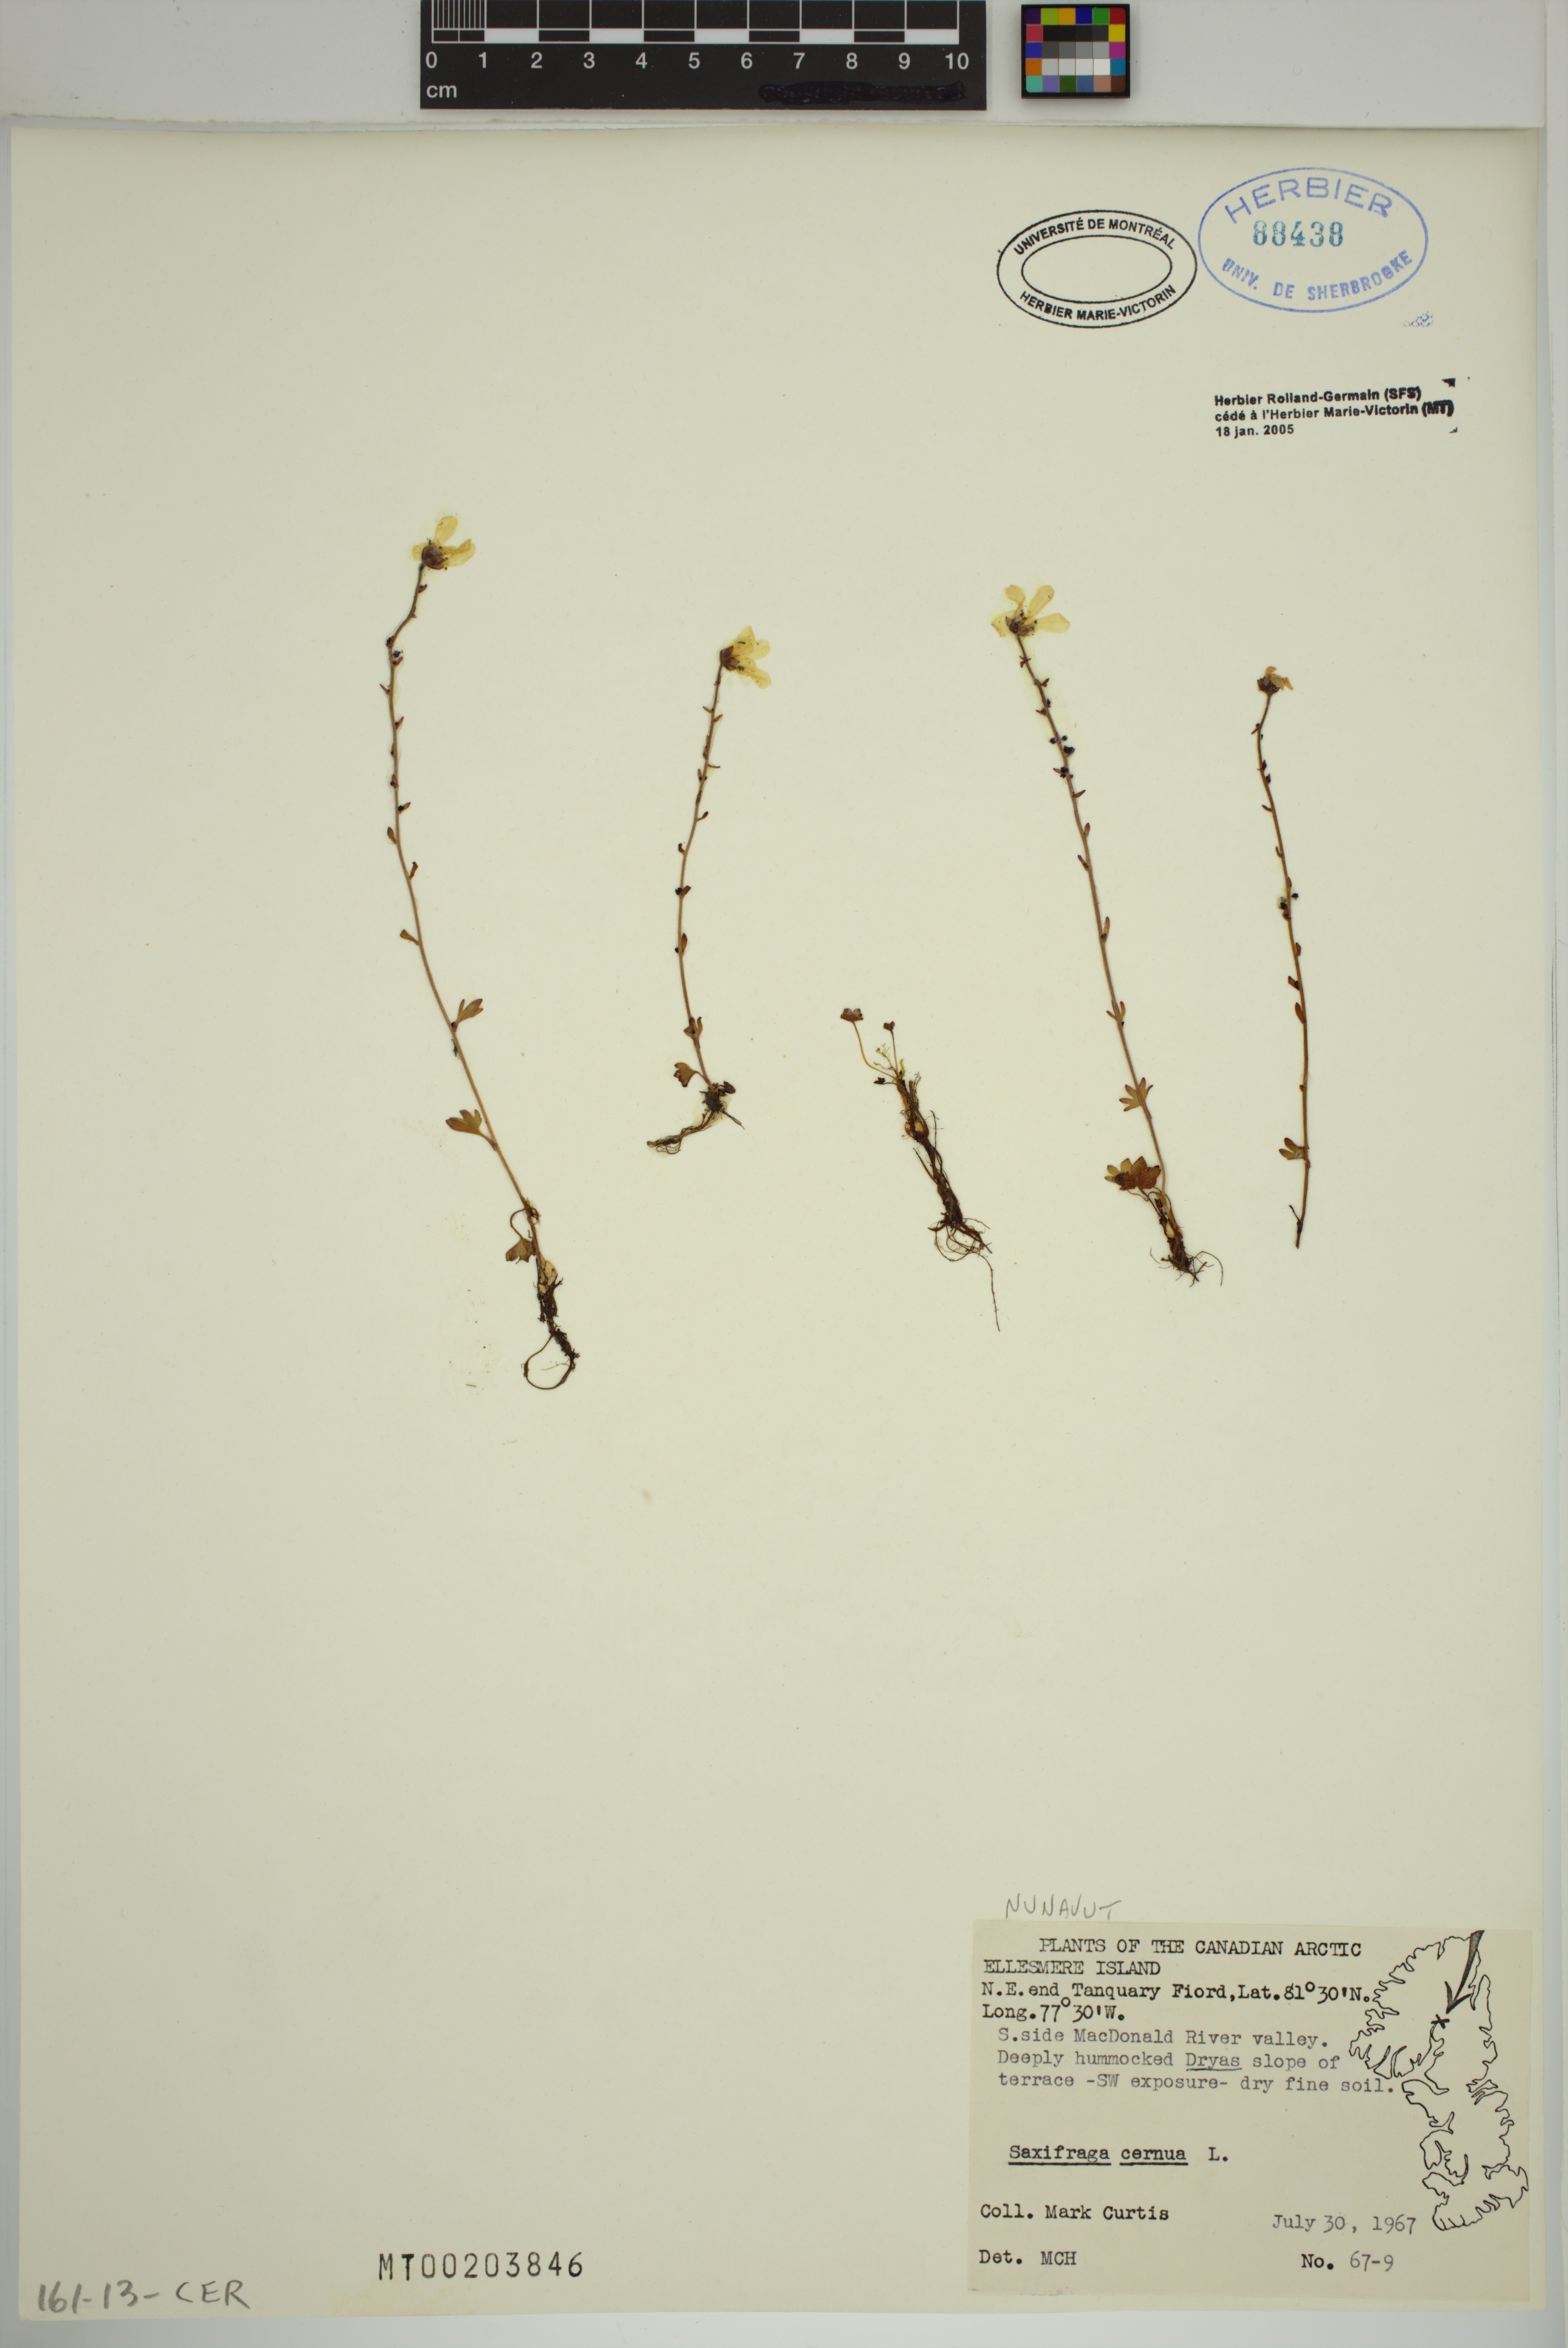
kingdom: Plantae
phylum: Tracheophyta
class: Magnoliopsida
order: Saxifragales
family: Saxifragaceae
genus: Saxifraga
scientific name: Saxifraga cernua
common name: Drooping saxifrage
